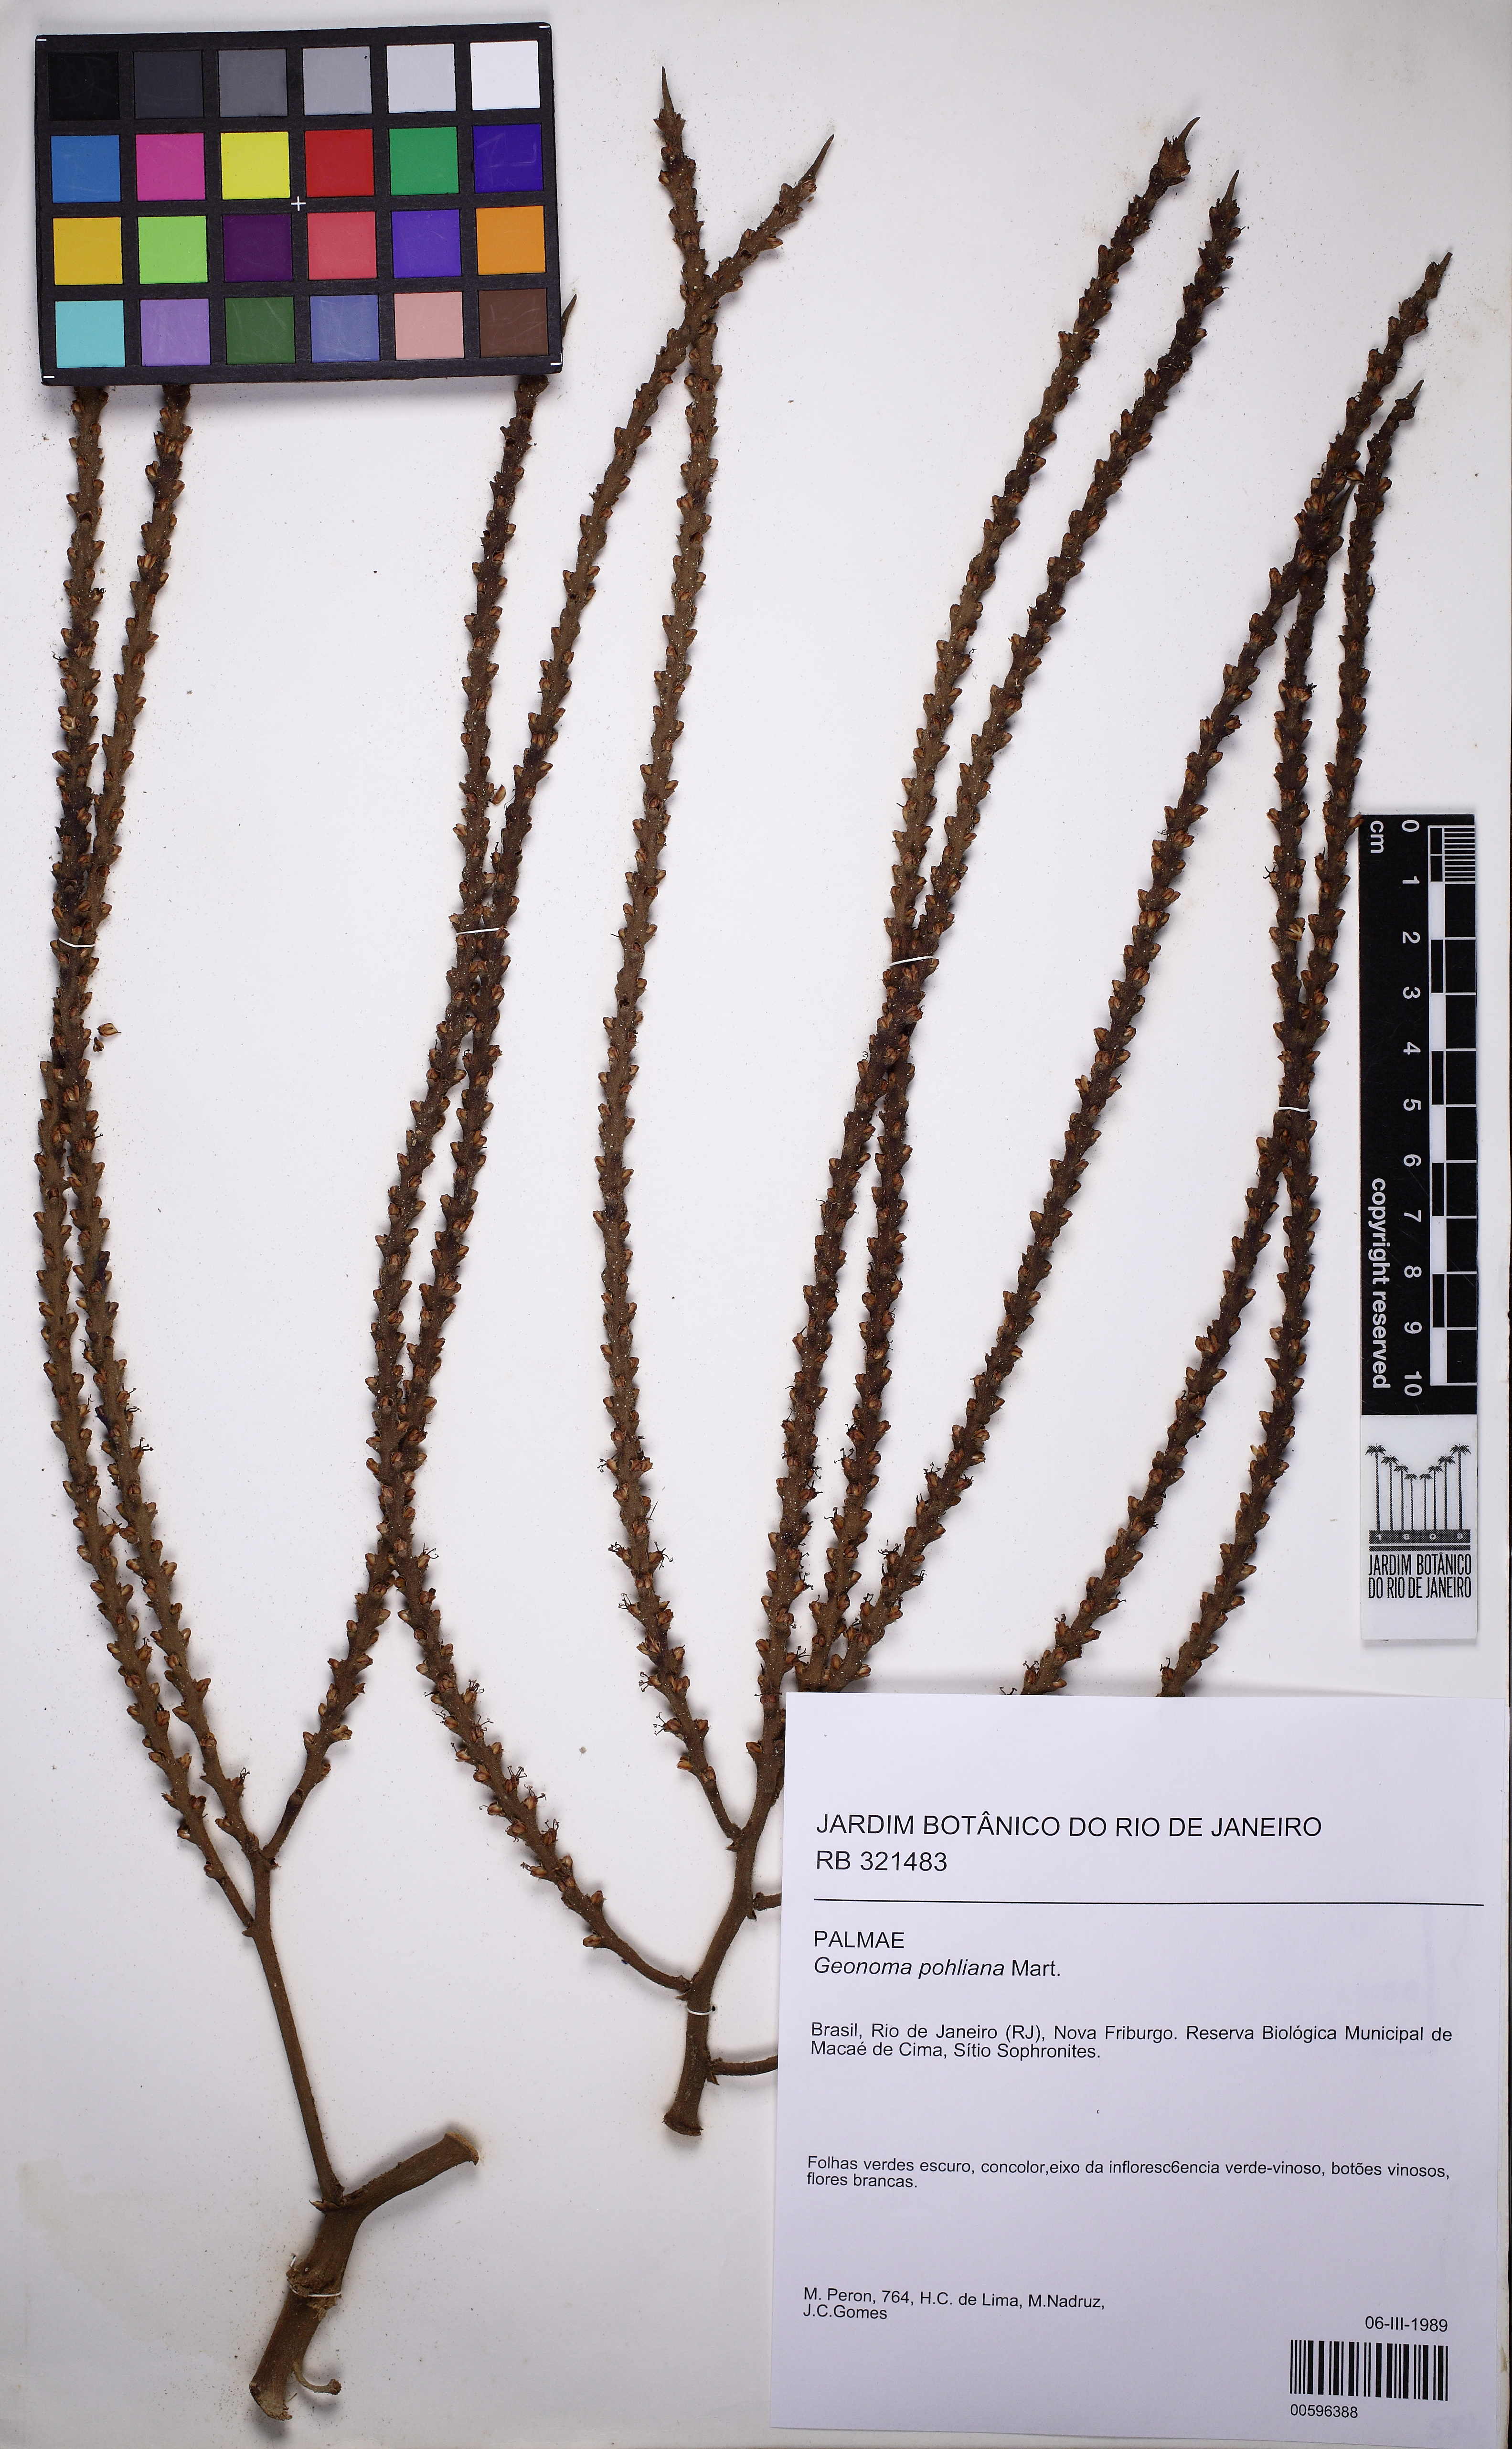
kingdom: Plantae
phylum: Tracheophyta
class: Liliopsida
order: Arecales
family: Arecaceae
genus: Geonoma
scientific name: Geonoma pohliana
